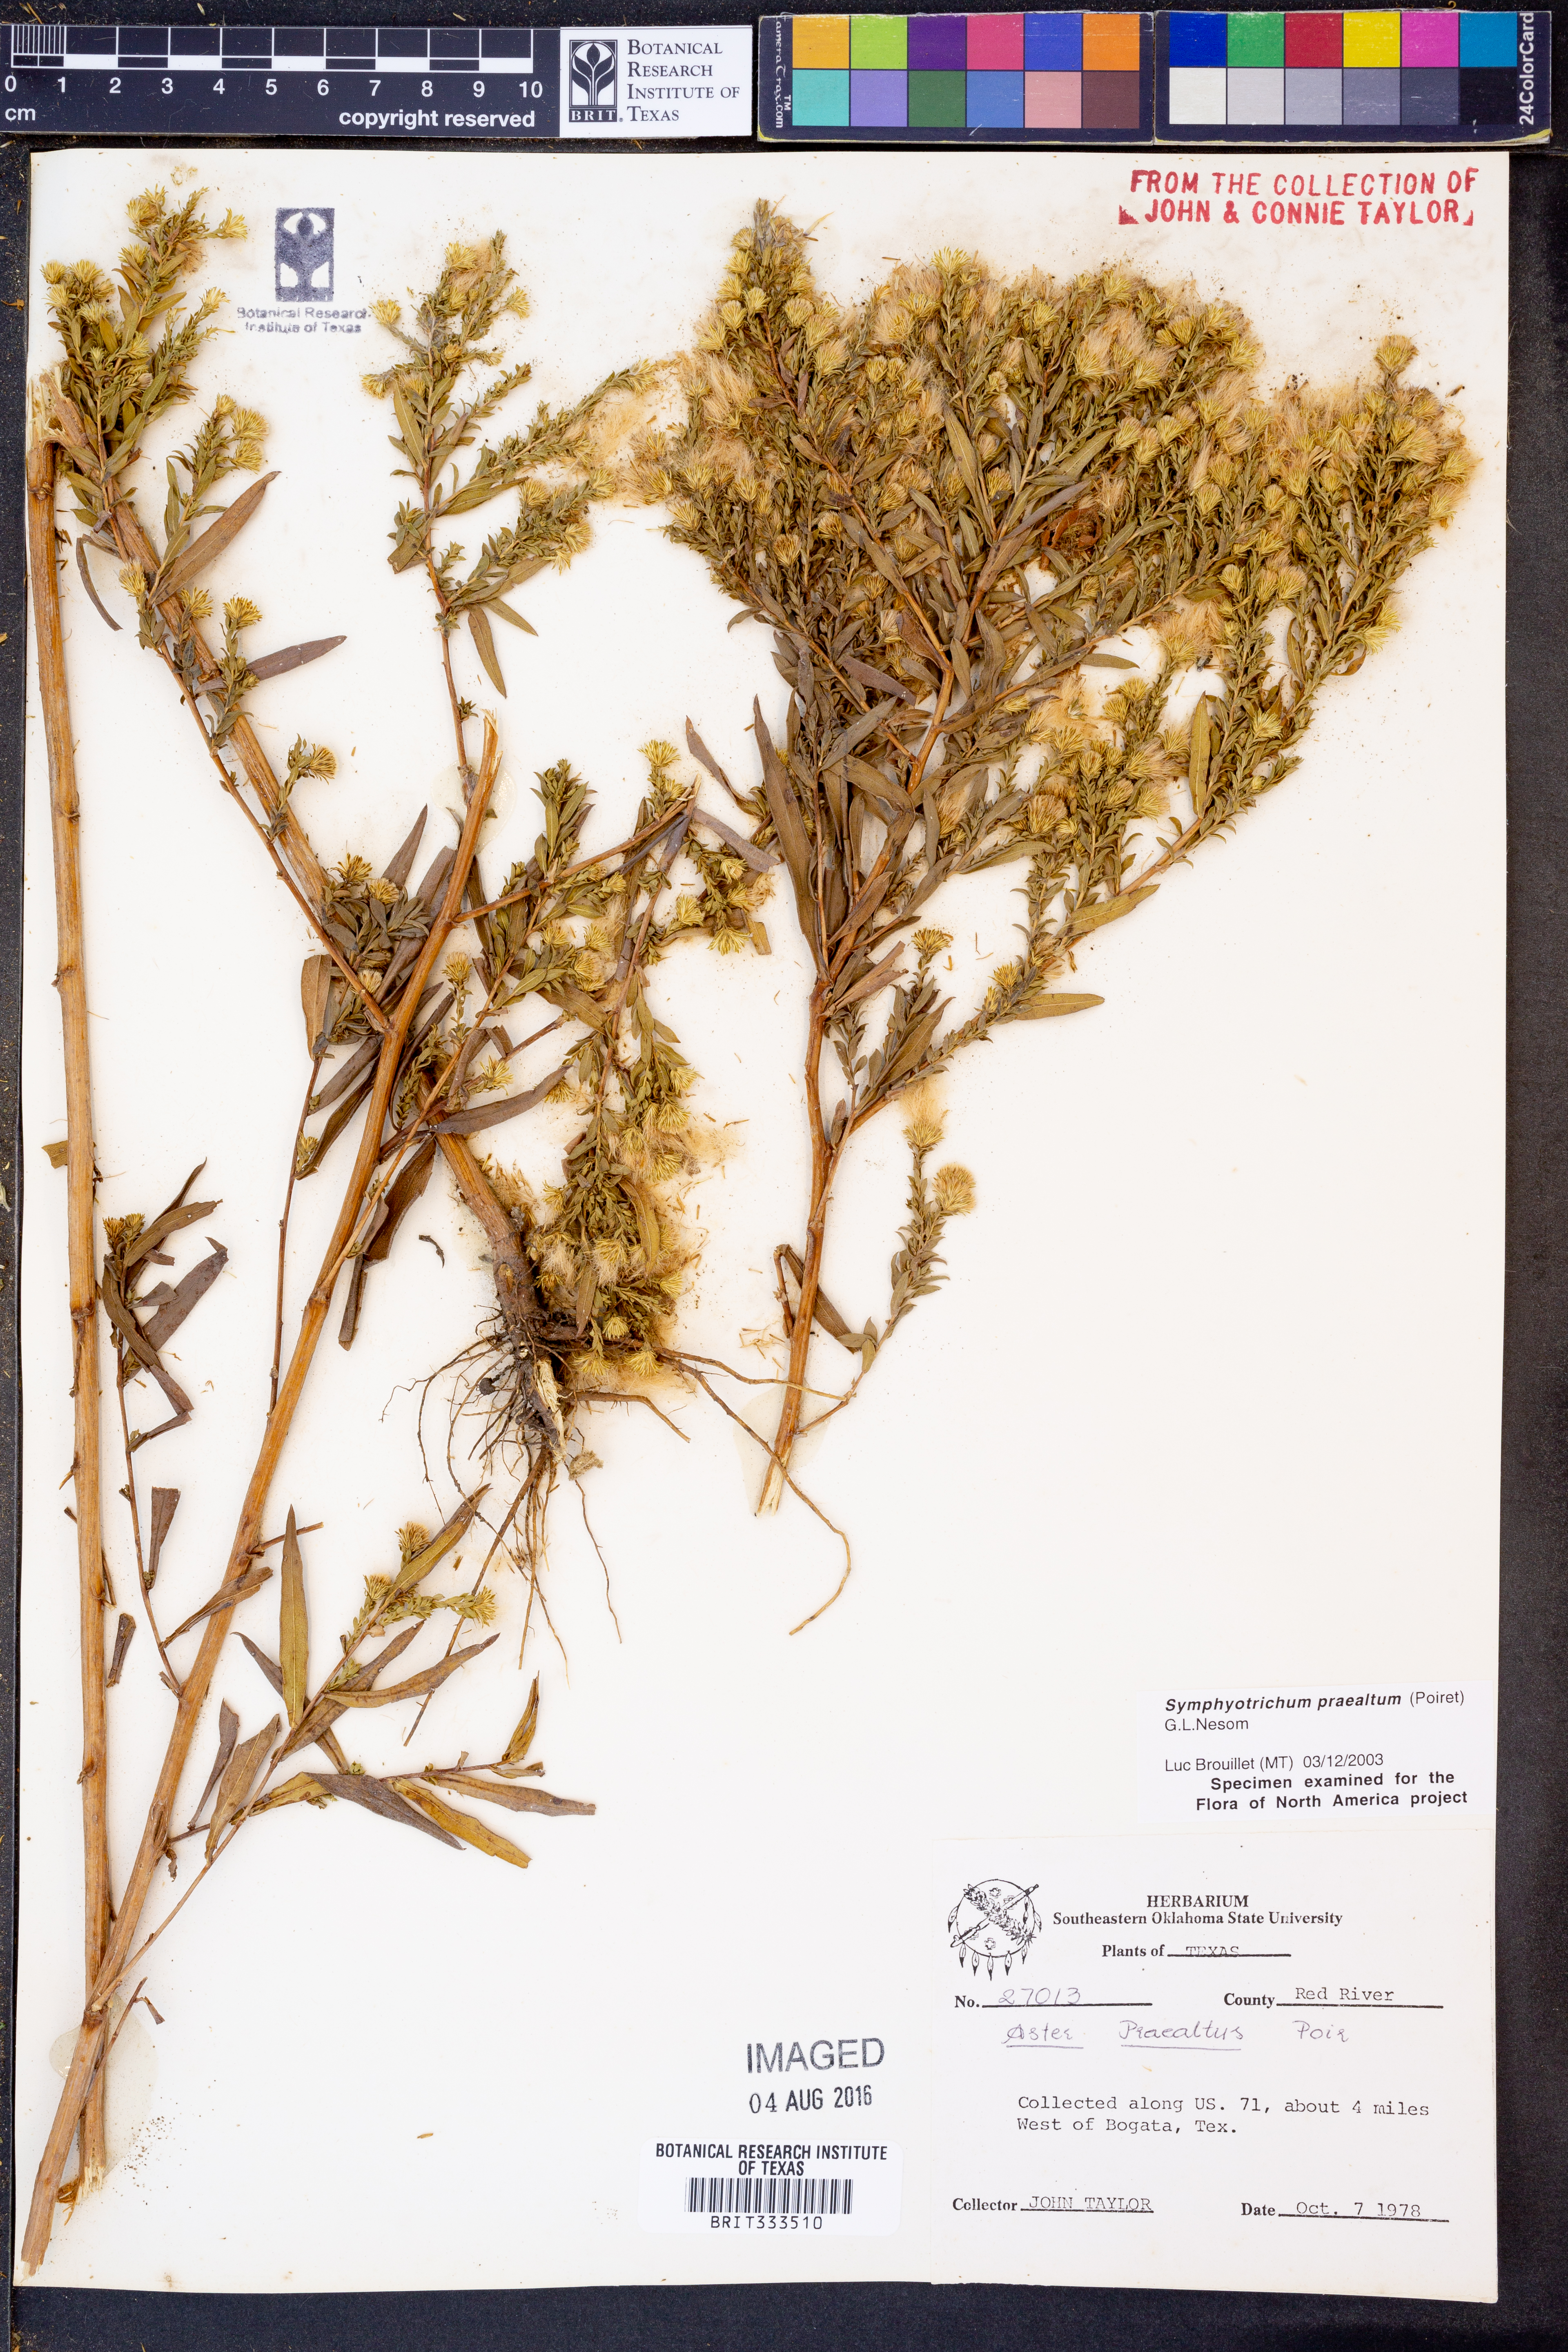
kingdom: Plantae
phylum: Tracheophyta
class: Magnoliopsida
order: Asterales
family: Asteraceae
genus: Symphyotrichum
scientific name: Symphyotrichum praealtum
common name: Willow aster
